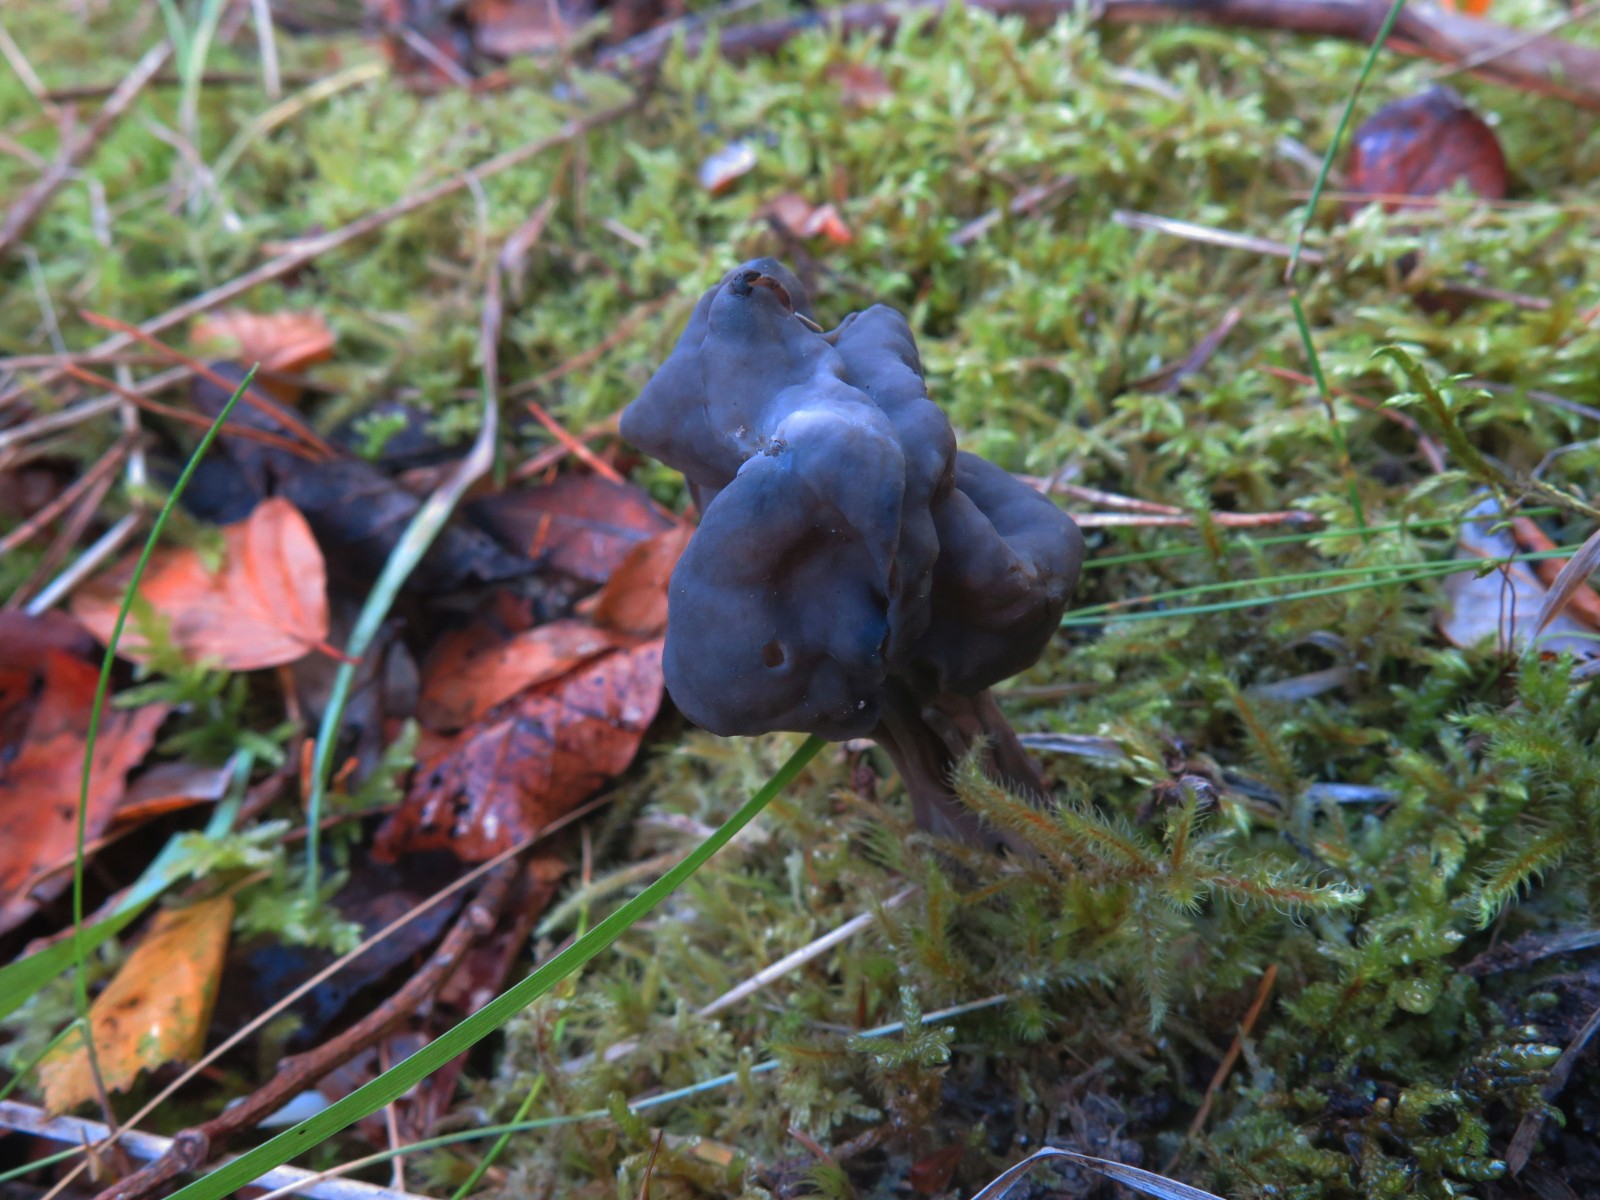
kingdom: Fungi
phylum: Ascomycota
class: Pezizomycetes
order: Pezizales
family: Helvellaceae
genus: Helvella
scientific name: Helvella lacunosa
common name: grubet foldhat
